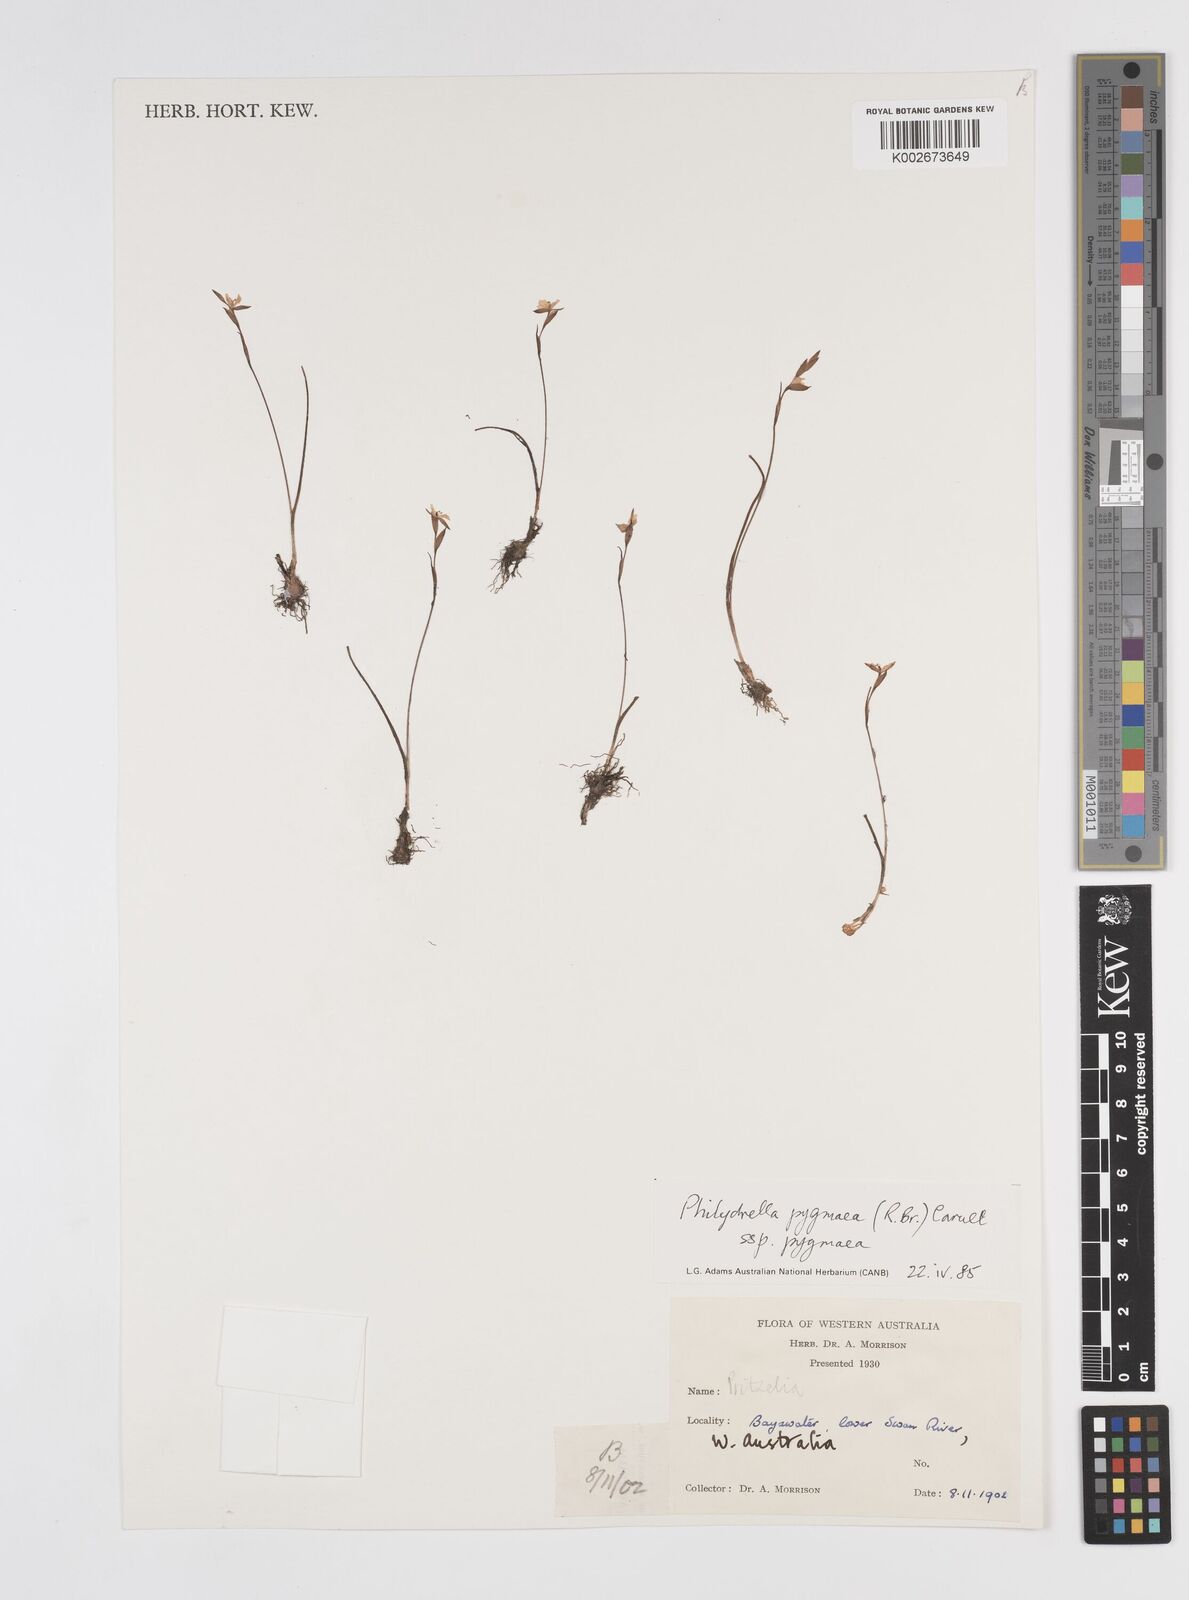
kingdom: Plantae
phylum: Tracheophyta
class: Liliopsida
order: Commelinales
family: Philydraceae
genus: Philydrella
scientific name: Philydrella pygmaea
